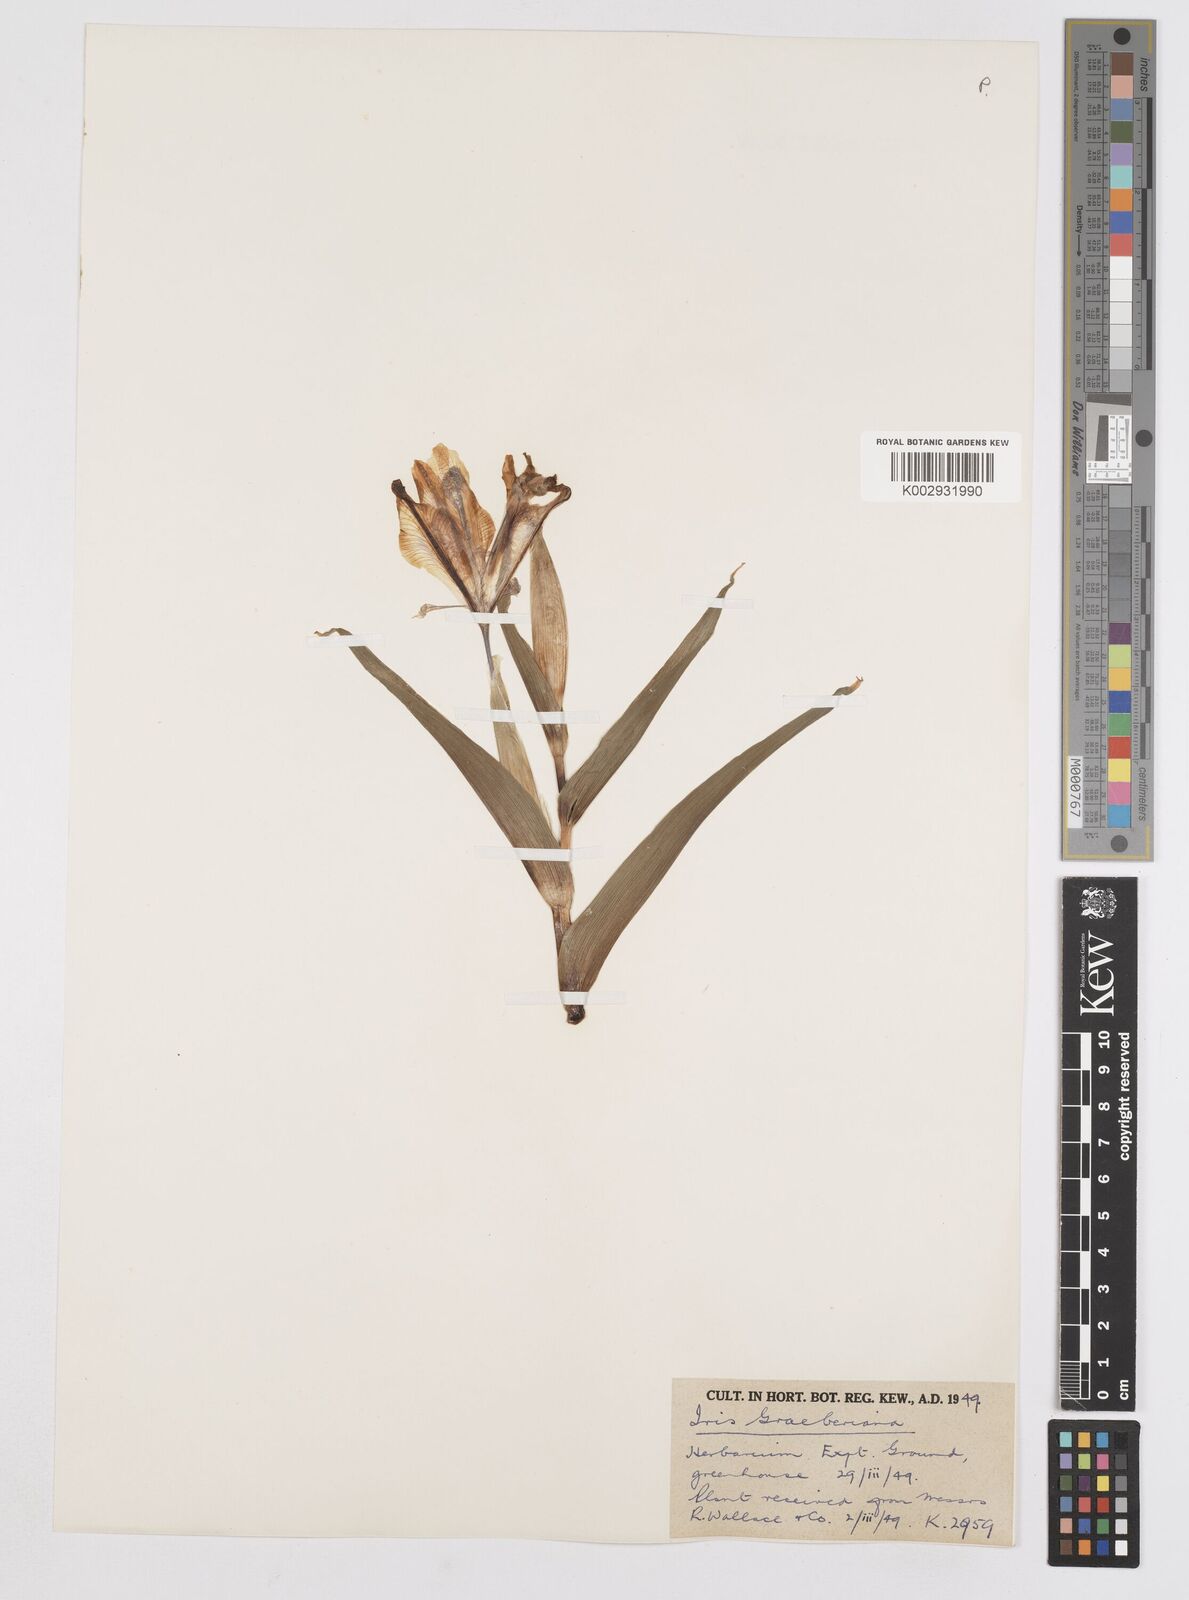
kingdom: Plantae
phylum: Tracheophyta
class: Liliopsida
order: Asparagales
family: Iridaceae
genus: Iris
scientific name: Iris graeberiana
